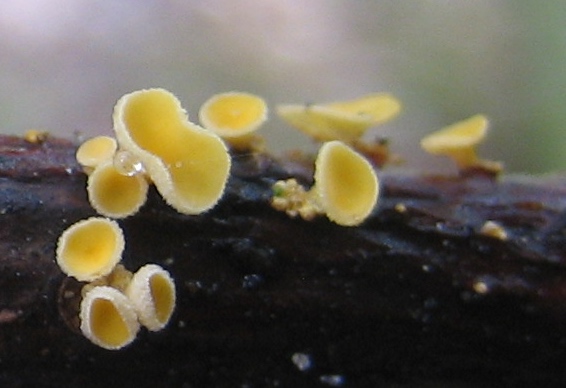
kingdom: Fungi
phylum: Ascomycota
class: Leotiomycetes
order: Helotiales
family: Lachnaceae
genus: Lachnellula
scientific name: Lachnellula
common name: frynseskive
